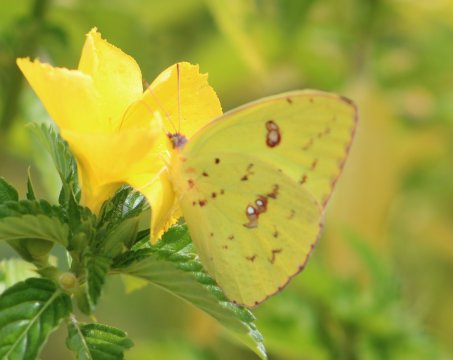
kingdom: Animalia
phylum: Arthropoda
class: Insecta
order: Lepidoptera
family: Hesperiidae
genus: Lerema
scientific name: Lerema accius
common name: Clouded Skipper
